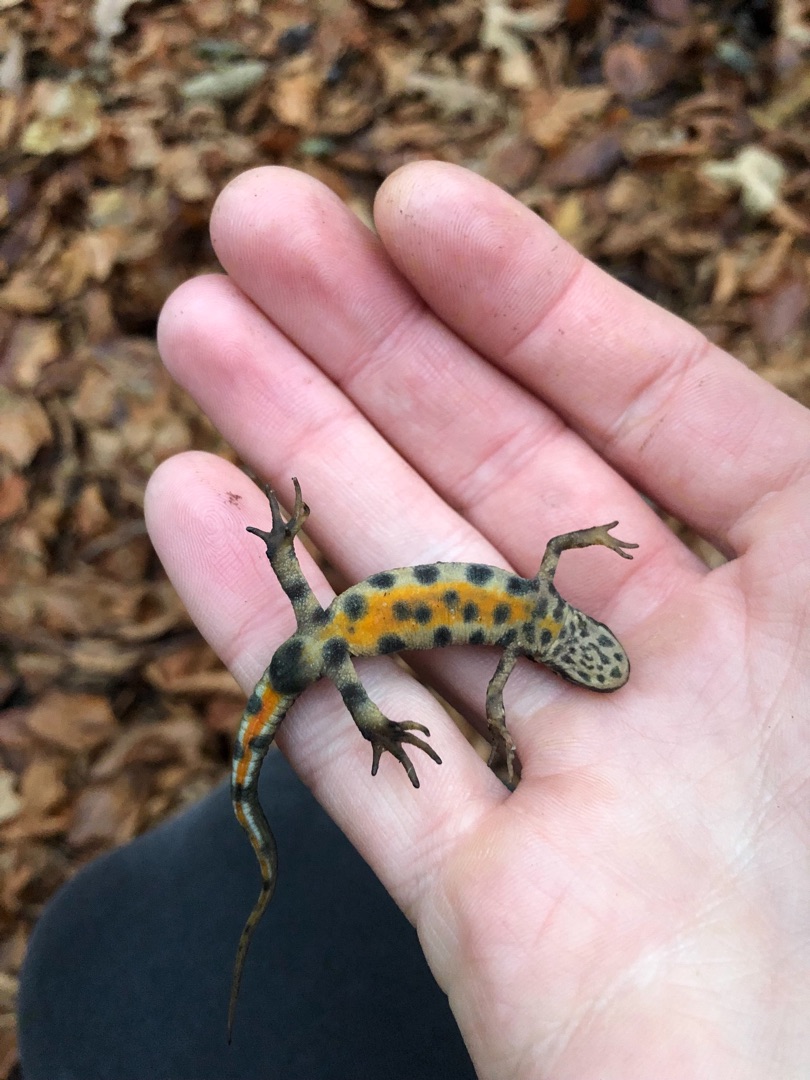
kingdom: Animalia
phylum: Chordata
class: Amphibia
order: Caudata
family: Salamandridae
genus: Lissotriton
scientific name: Lissotriton vulgaris
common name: Lille vandsalamander
